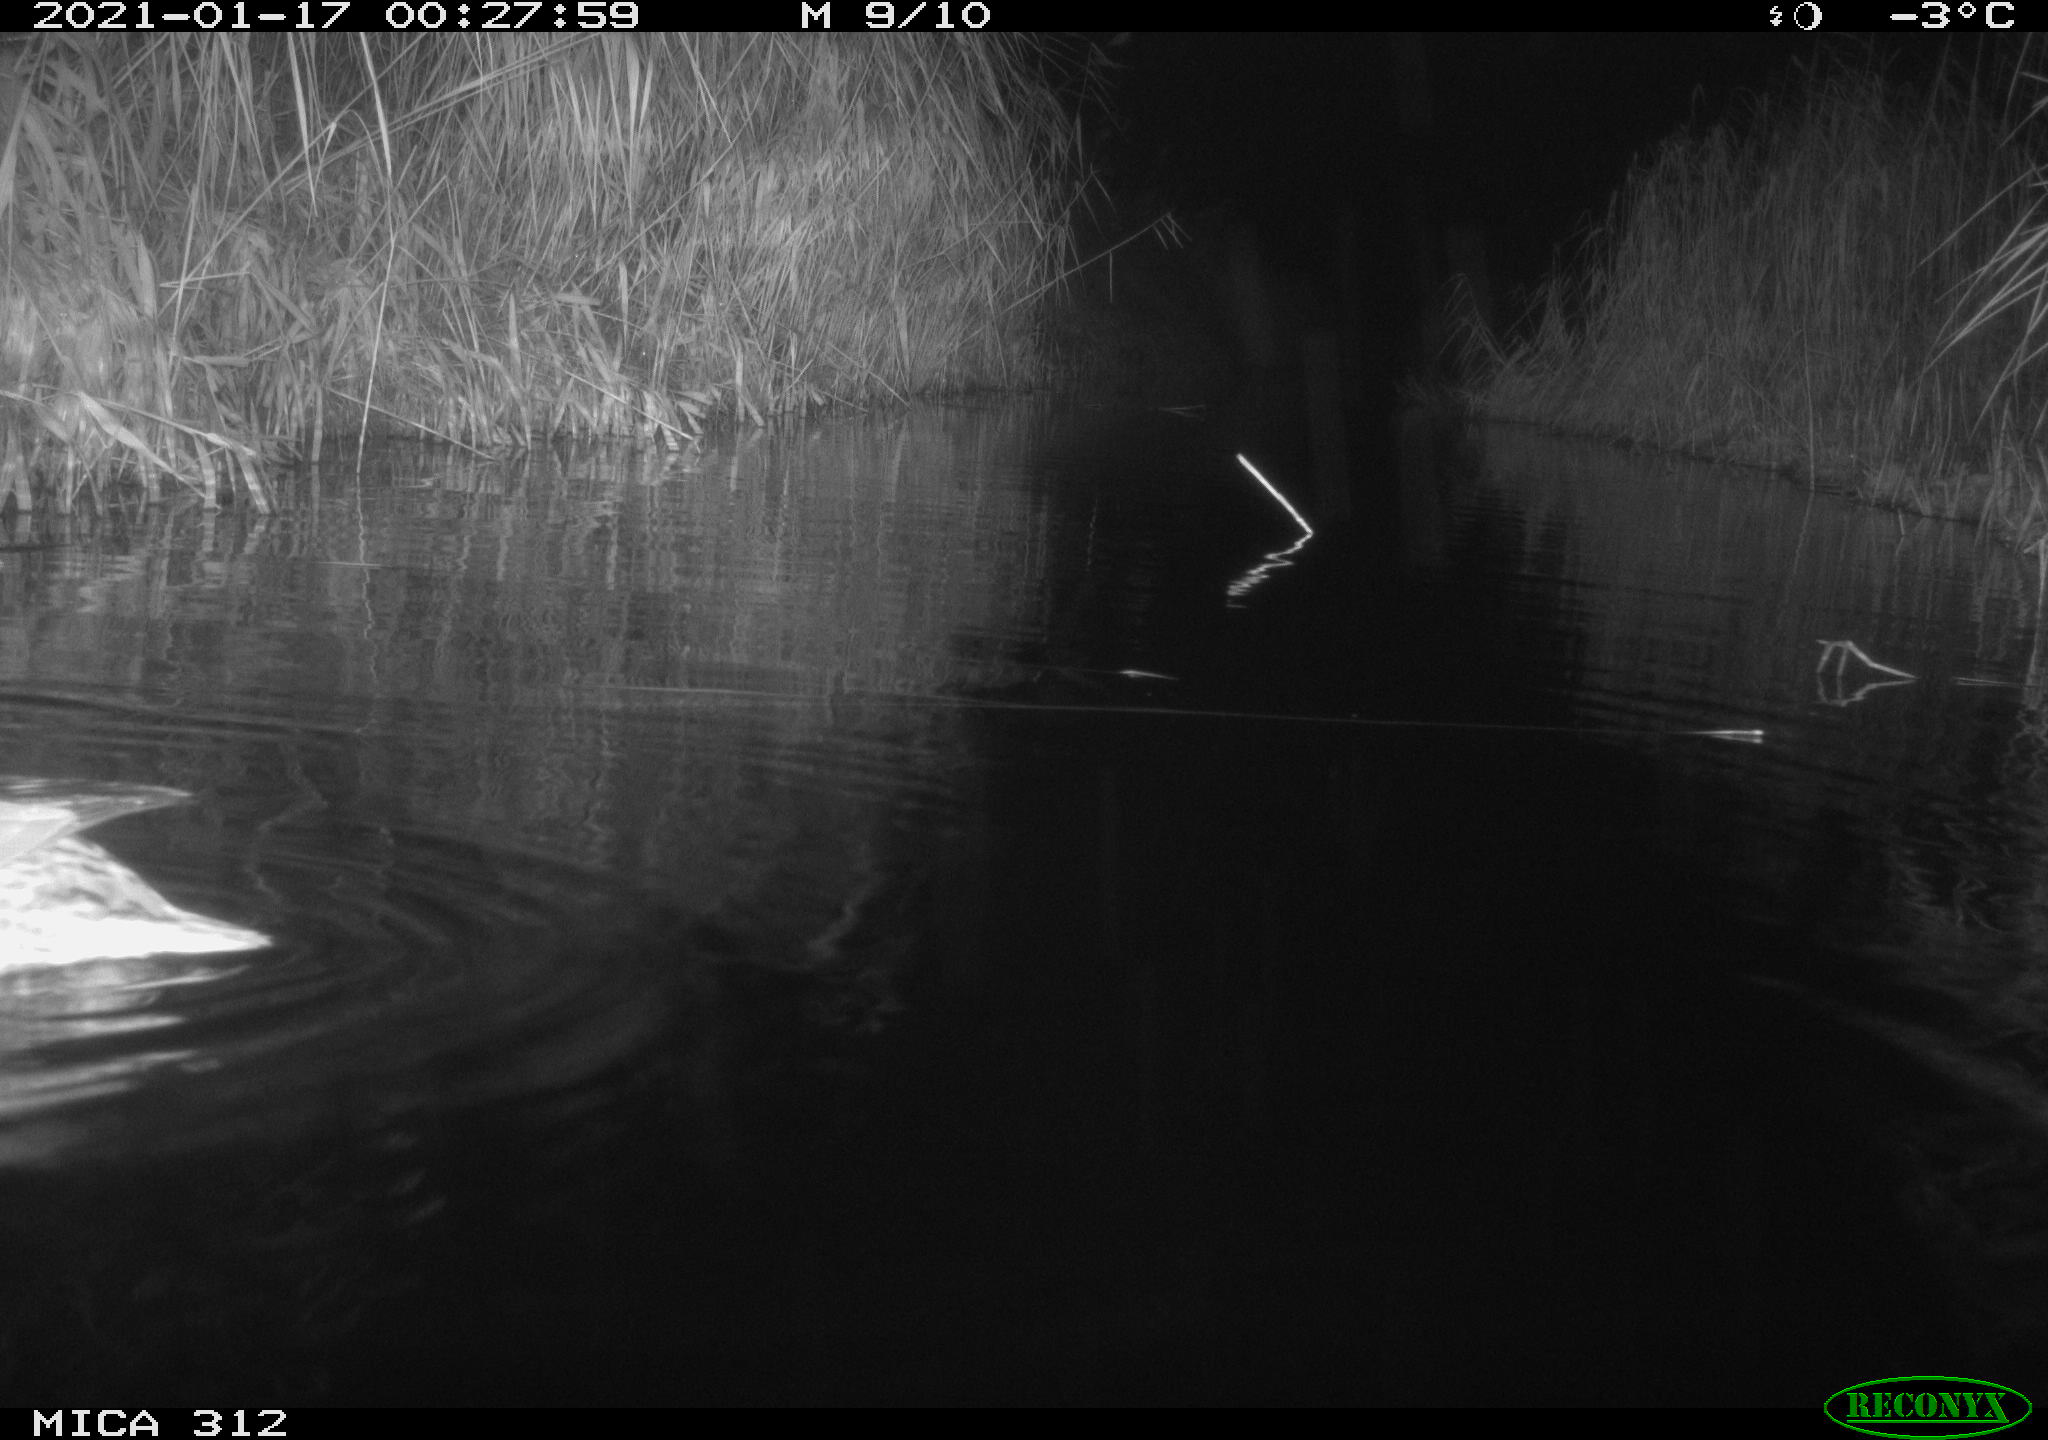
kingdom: Animalia
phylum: Chordata
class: Aves
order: Anseriformes
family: Anatidae
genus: Anas
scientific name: Anas
